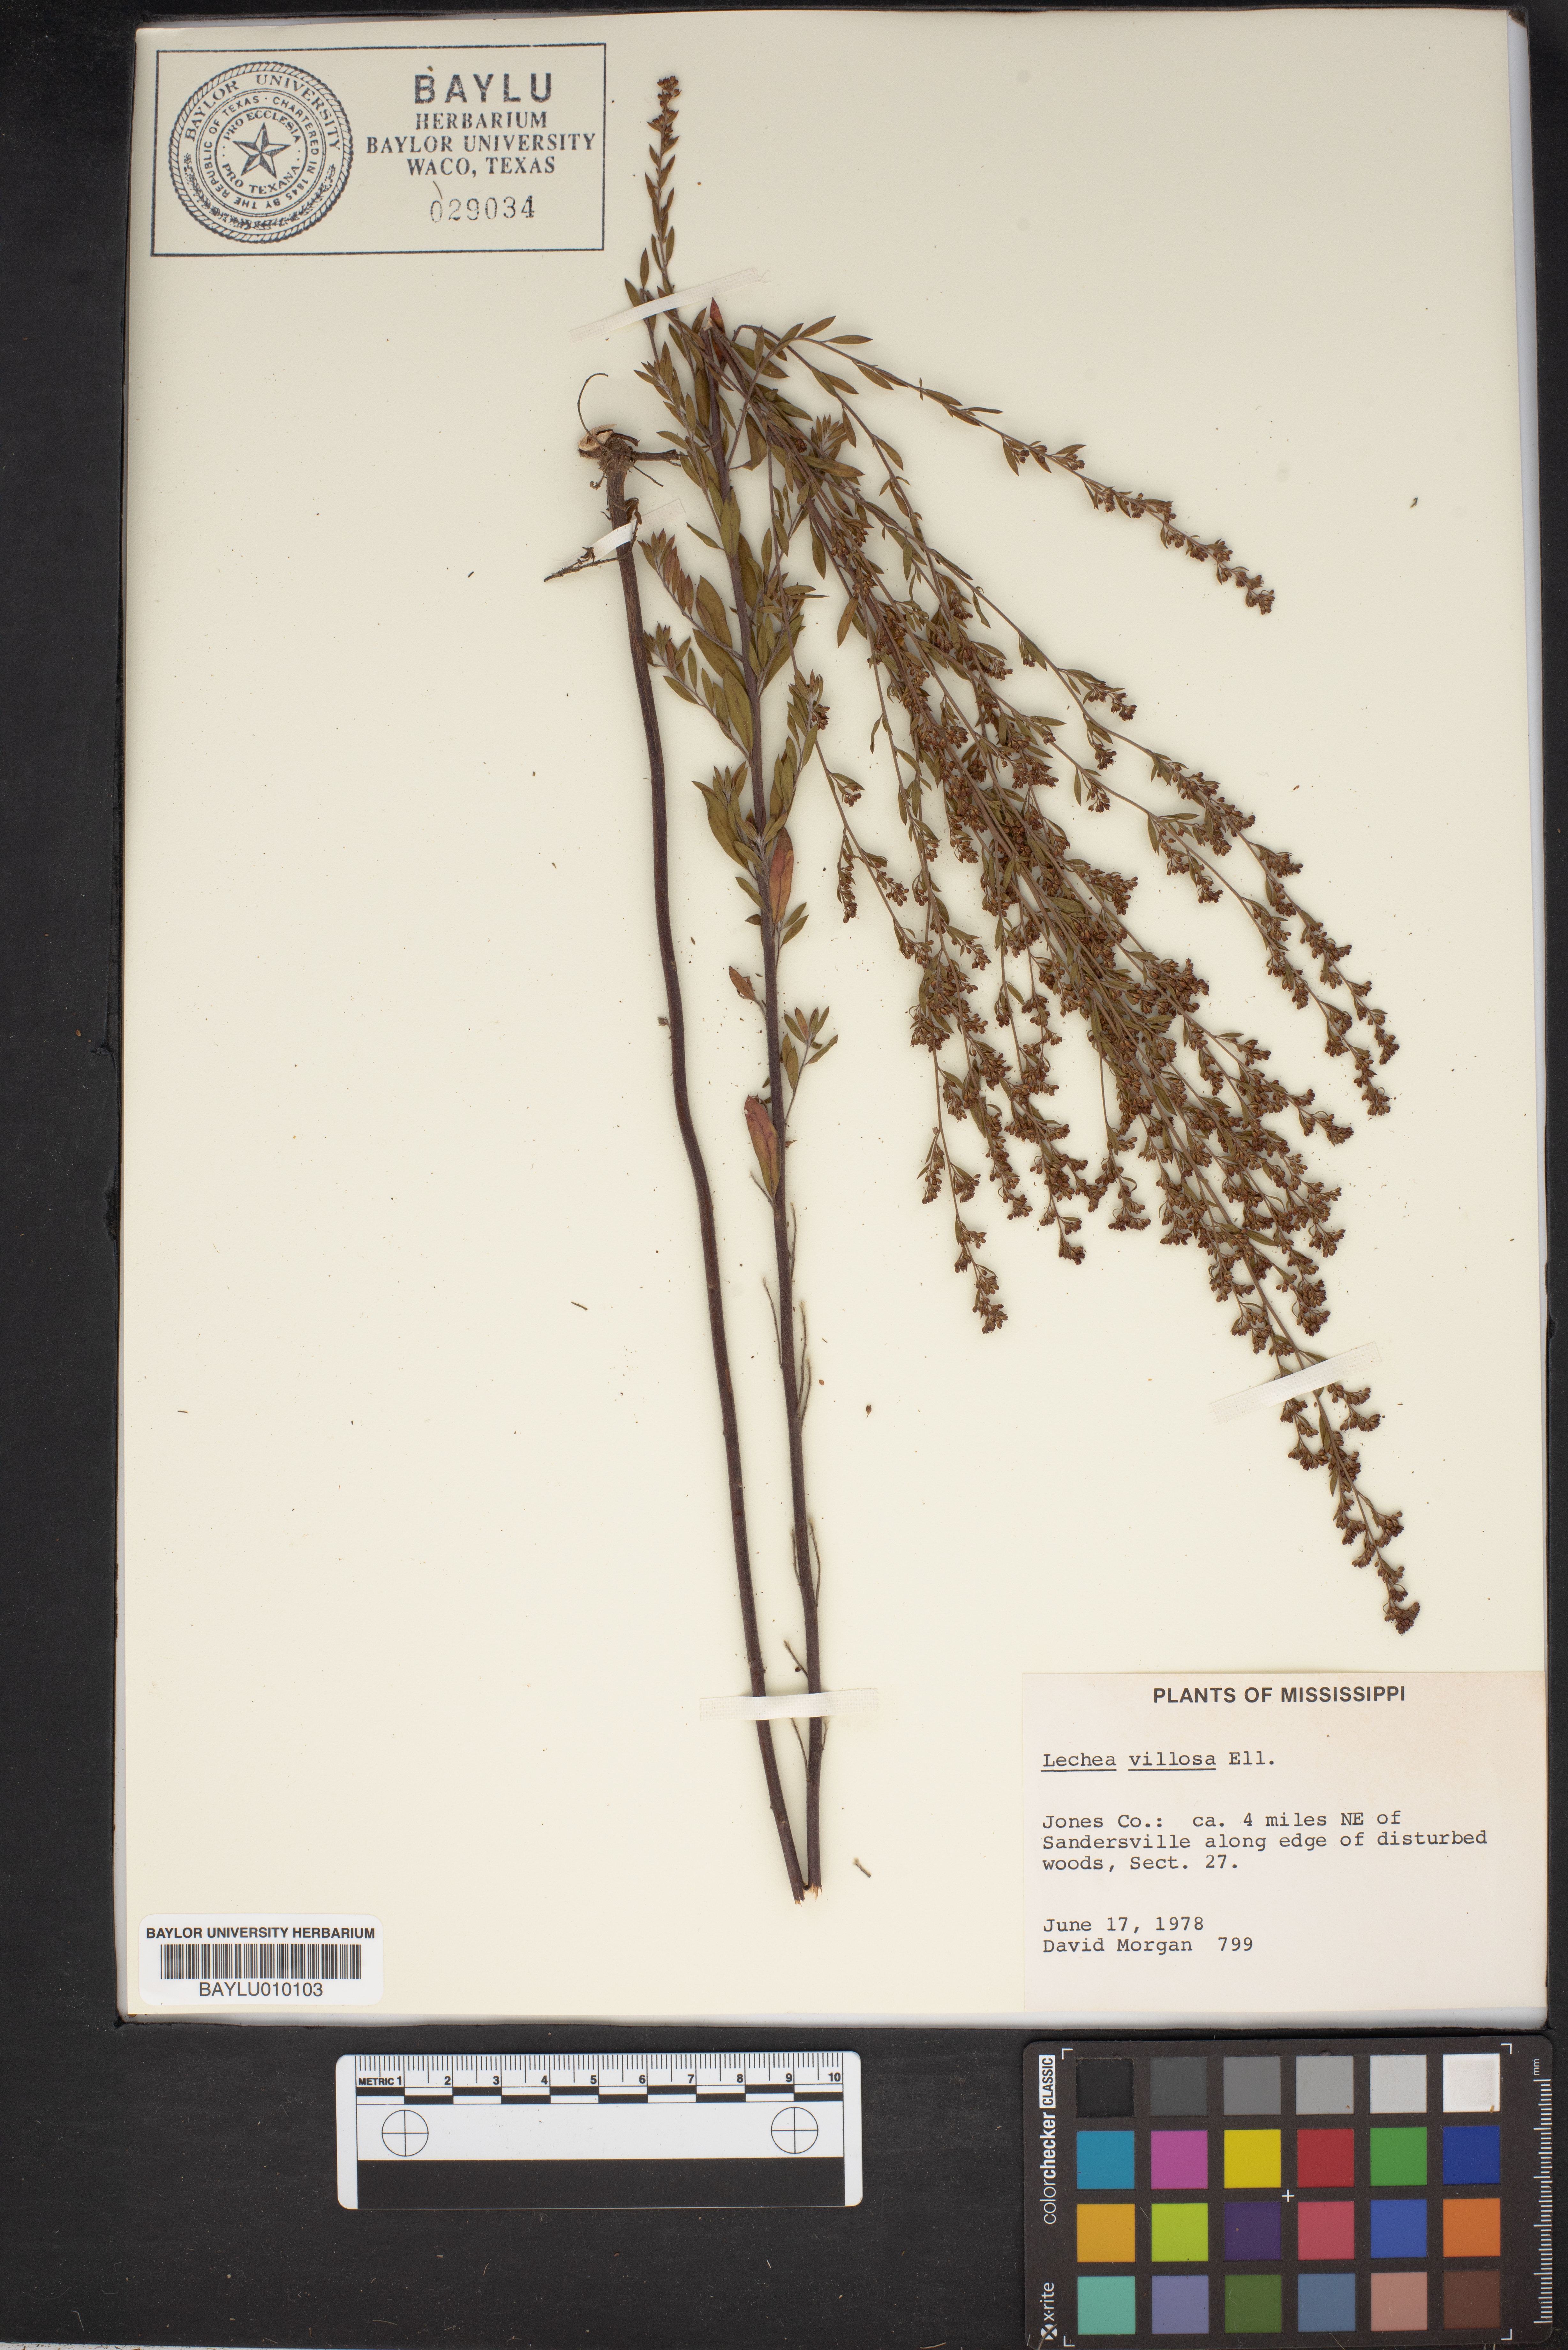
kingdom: Plantae
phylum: Tracheophyta
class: Magnoliopsida
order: Malvales
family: Cistaceae
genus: Lechea
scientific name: Lechea mucronata
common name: Hairy pinweed
